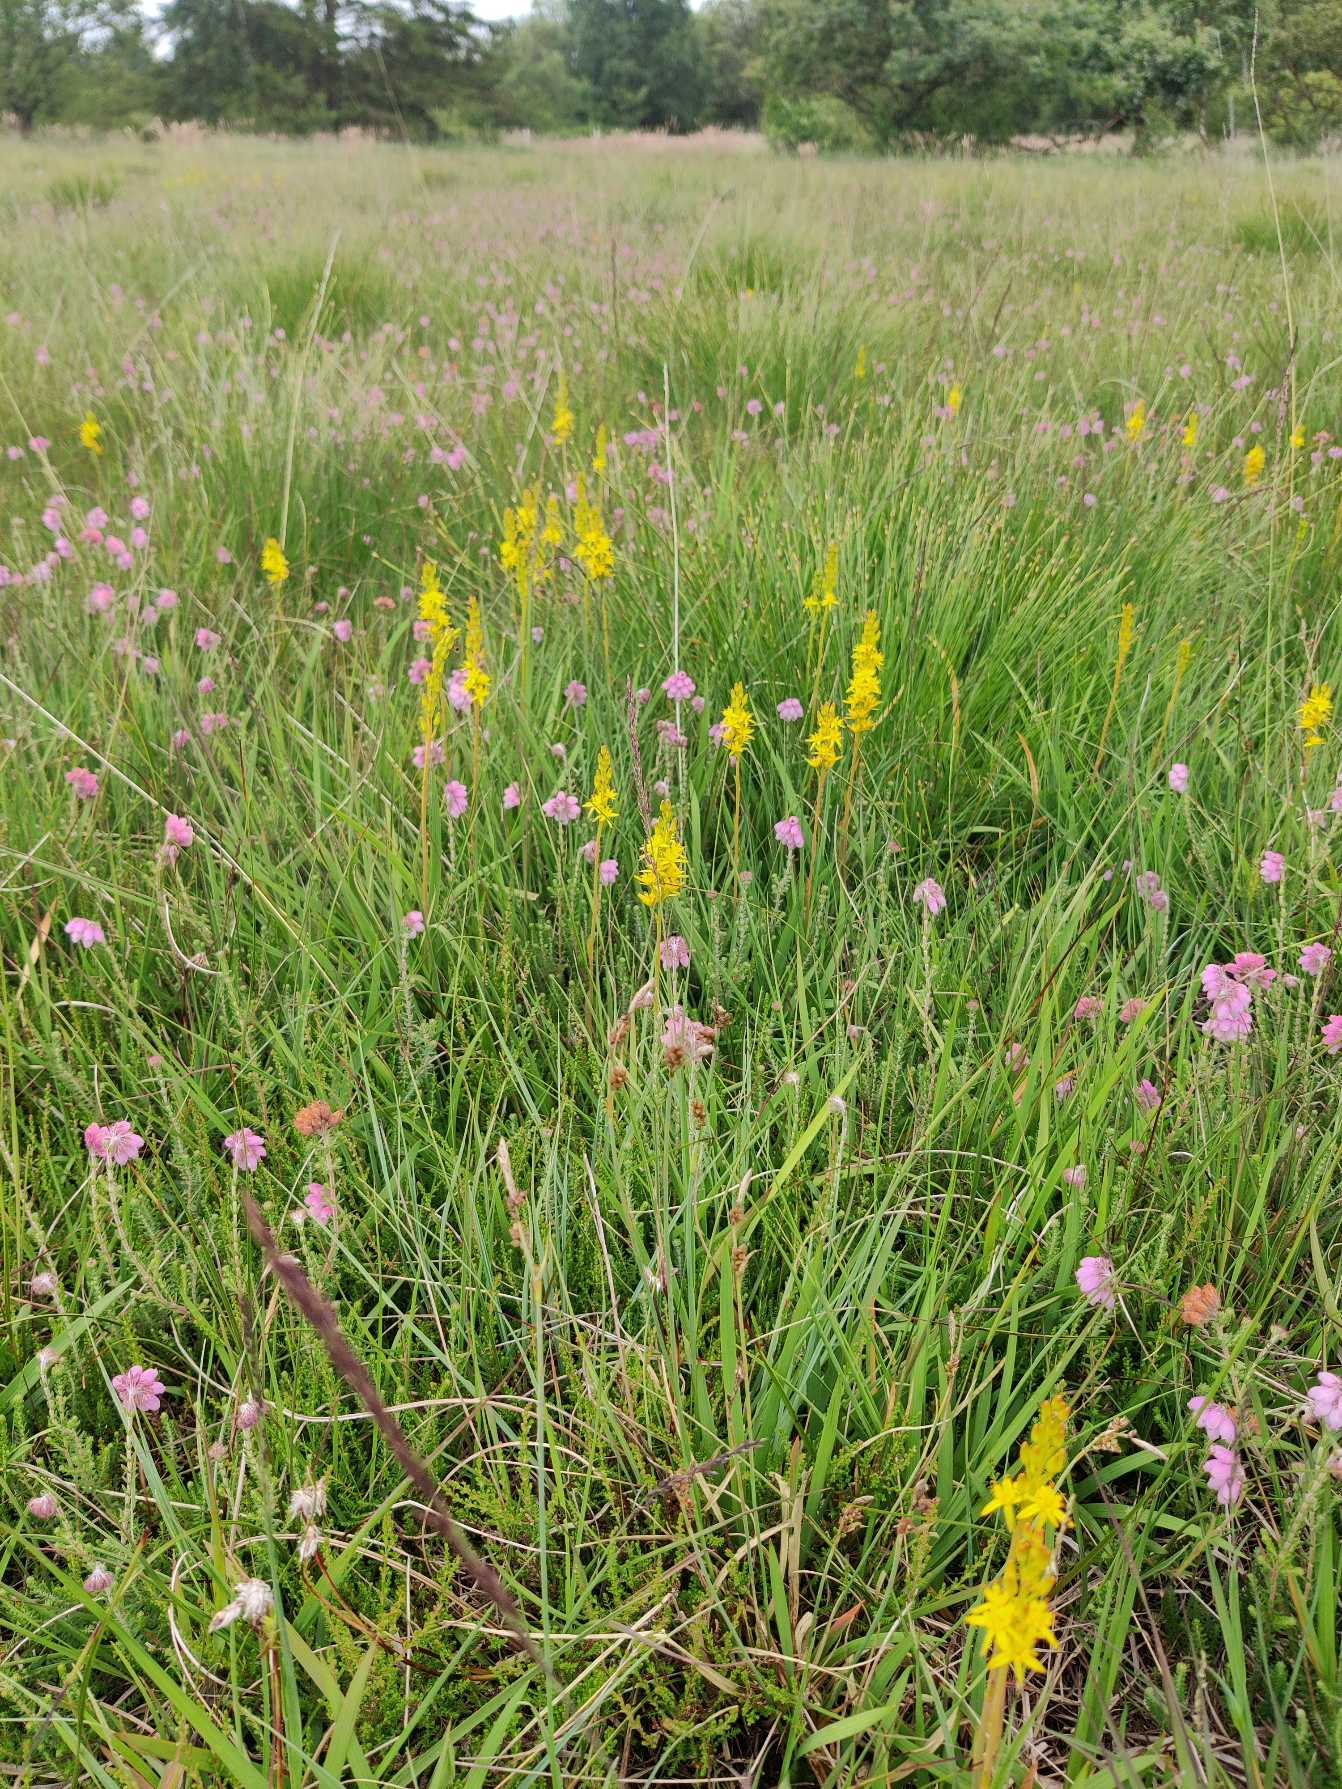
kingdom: Plantae
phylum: Tracheophyta
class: Liliopsida
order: Dioscoreales
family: Nartheciaceae
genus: Narthecium
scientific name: Narthecium ossifragum
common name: Benbræk
